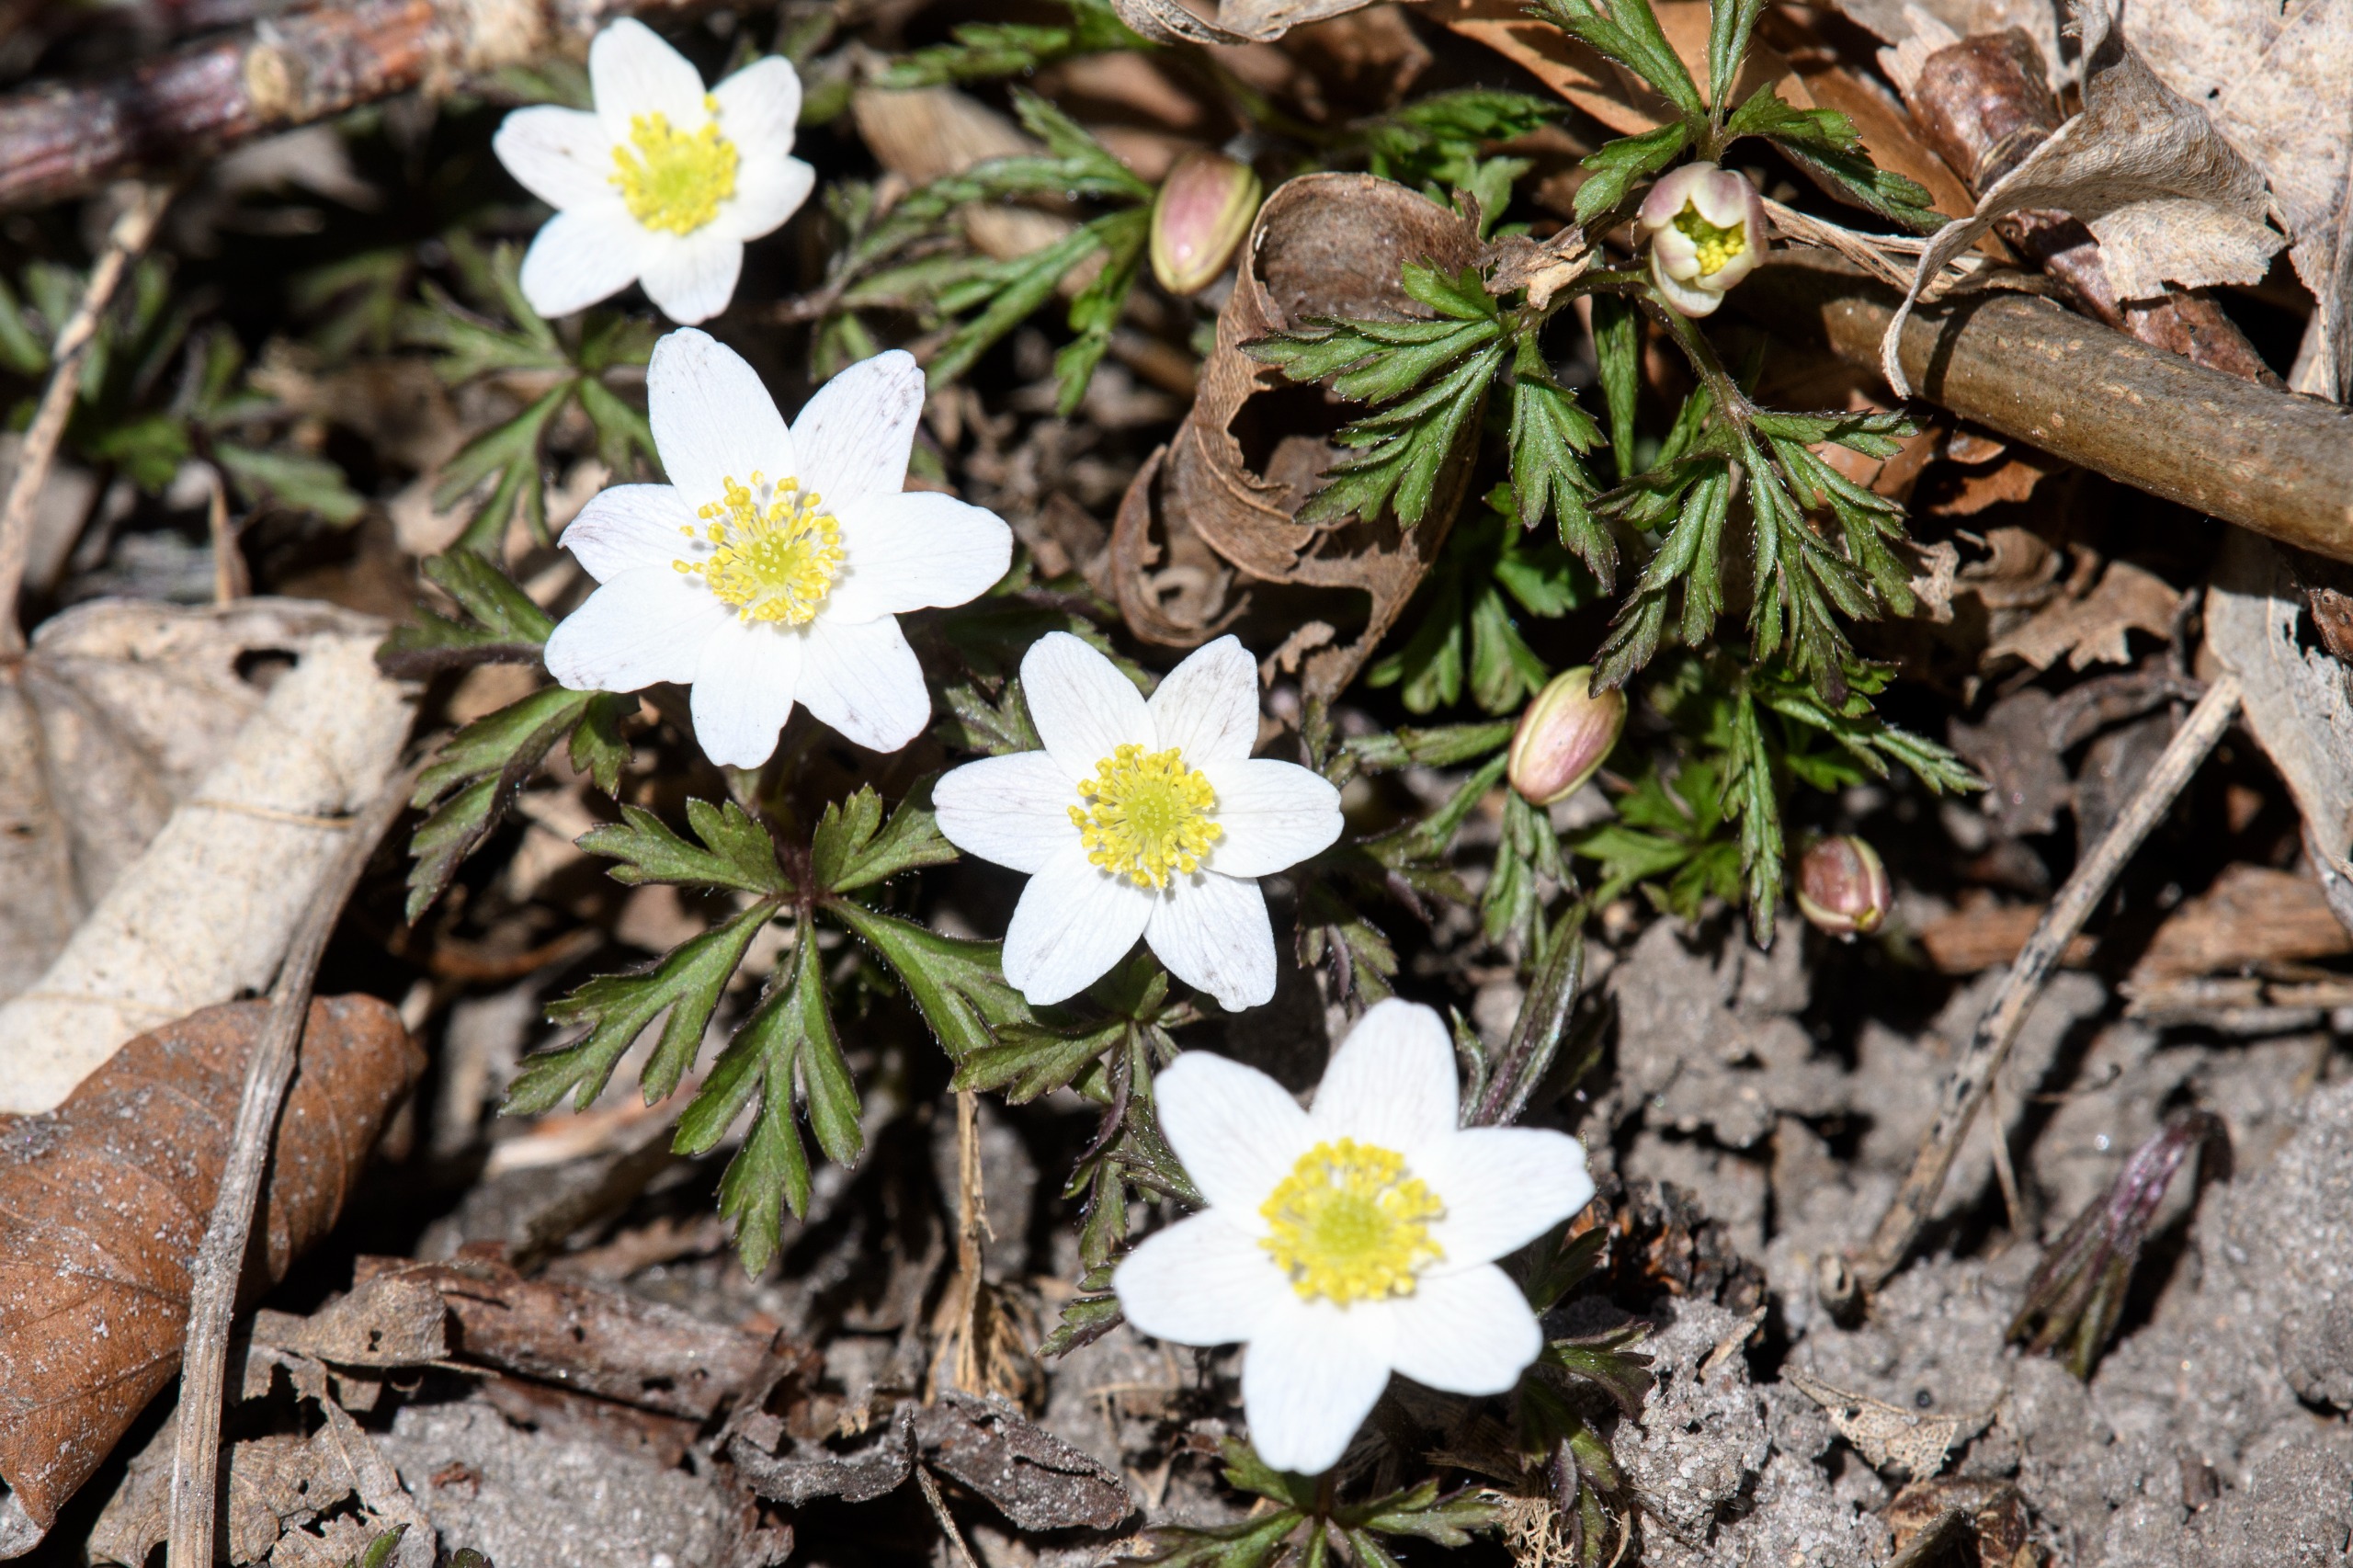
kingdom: Plantae
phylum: Tracheophyta
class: Magnoliopsida
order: Ranunculales
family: Ranunculaceae
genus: Anemone
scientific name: Anemone nemorosa
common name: Hvid anemone
